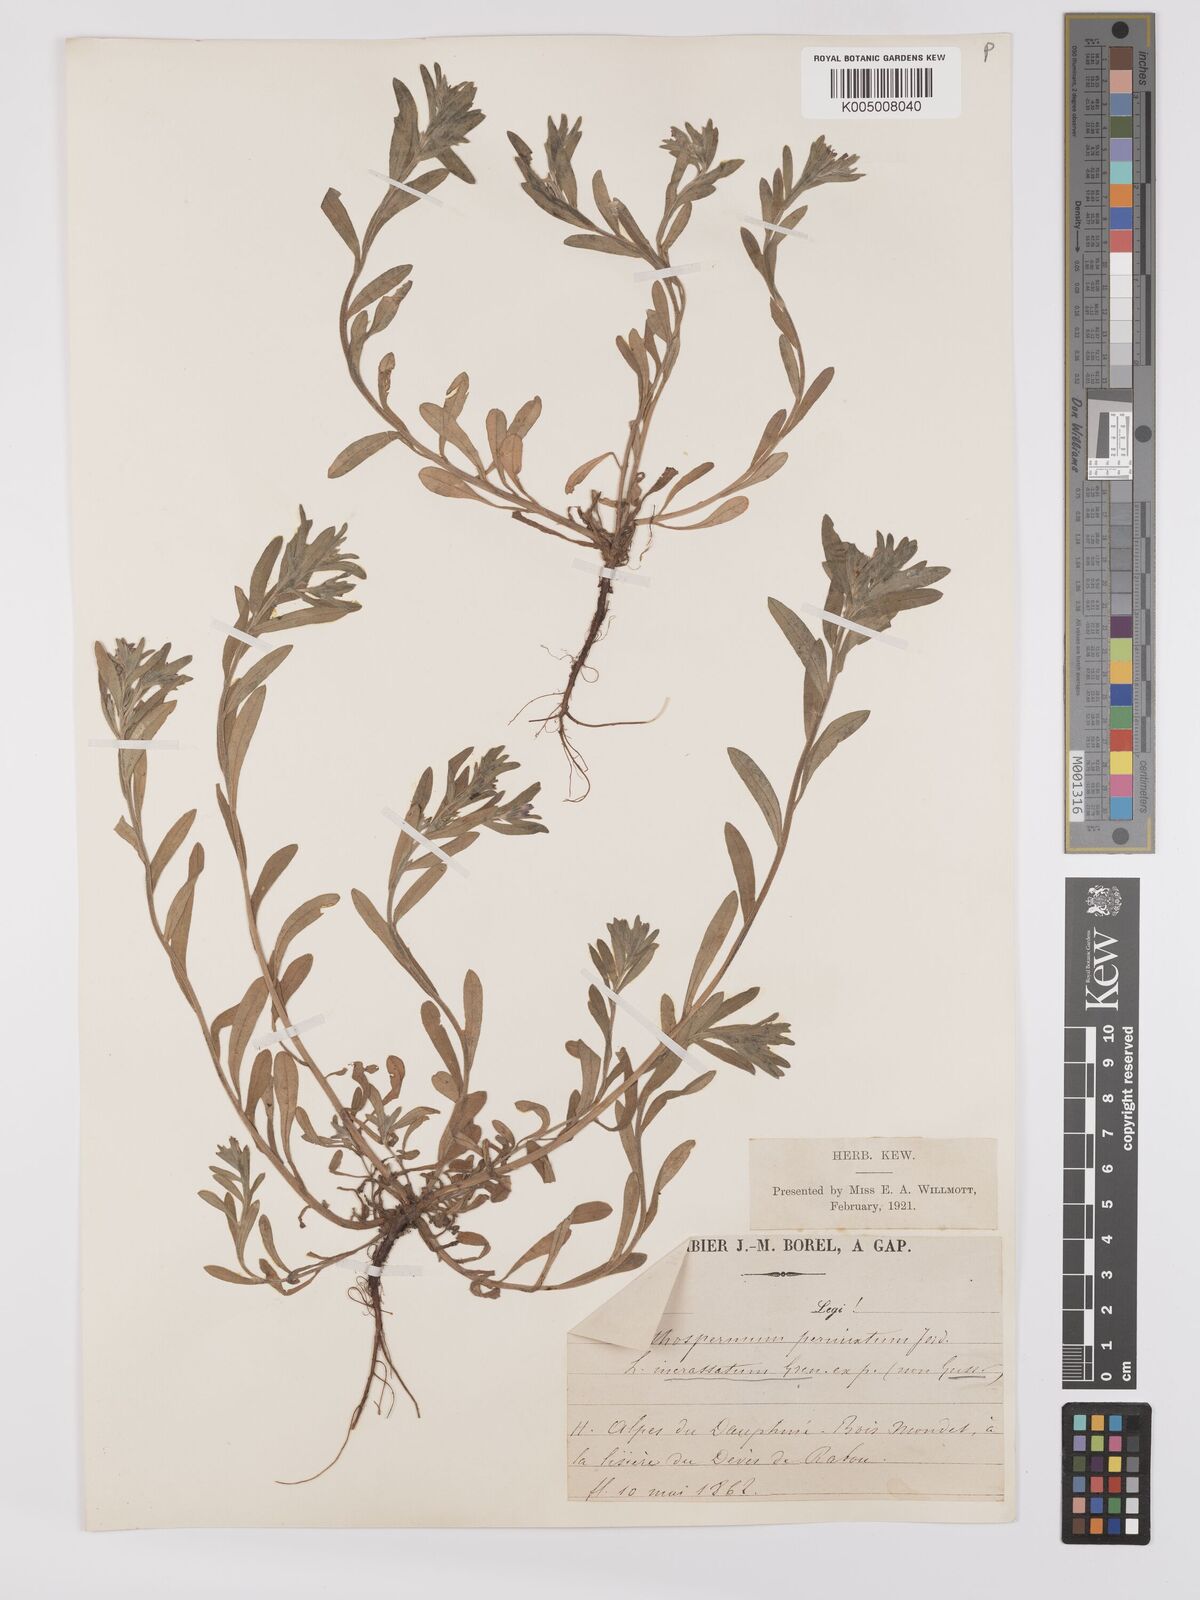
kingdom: Plantae
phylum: Tracheophyta
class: Magnoliopsida
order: Boraginales
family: Boraginaceae
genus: Buglossoides
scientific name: Buglossoides incrassata
